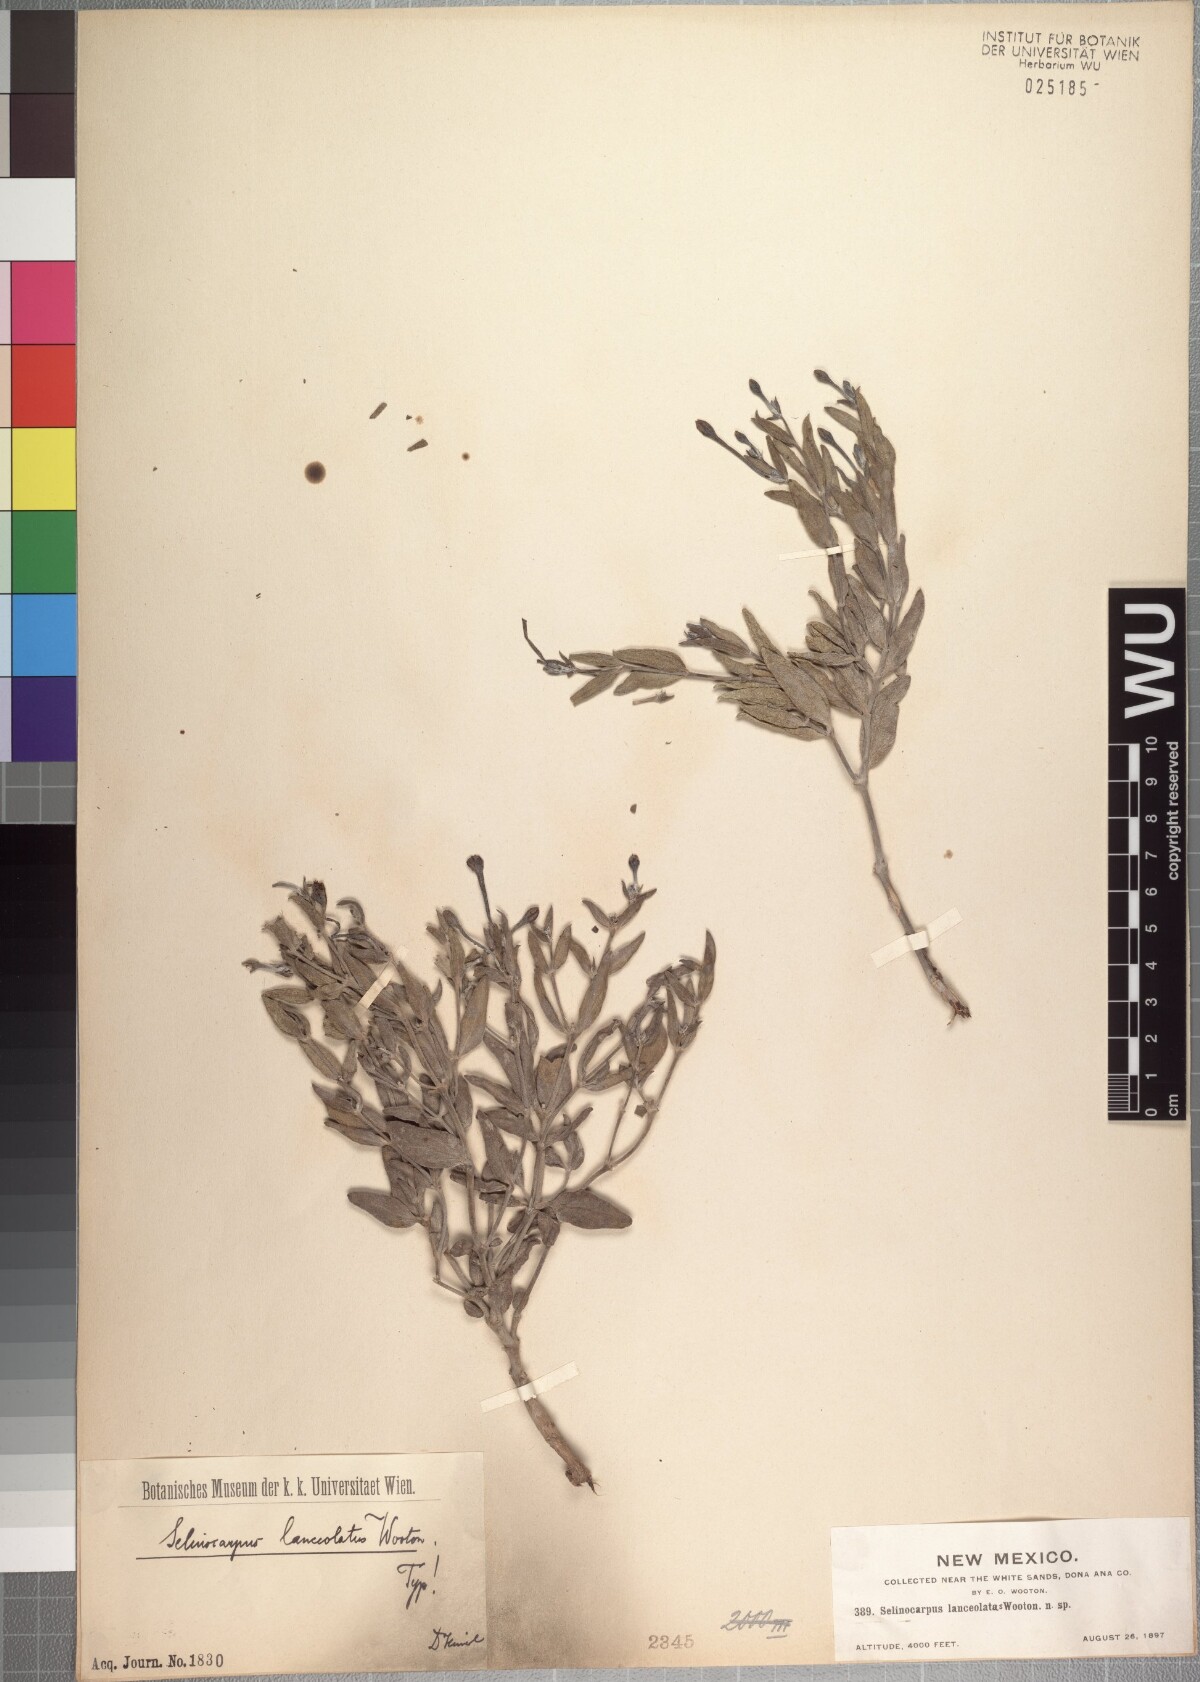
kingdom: Plantae
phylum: Tracheophyta
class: Magnoliopsida
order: Caryophyllales
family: Nyctaginaceae
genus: Acleisanthes
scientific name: Acleisanthes lanceolata
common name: Gypsum moonpod
